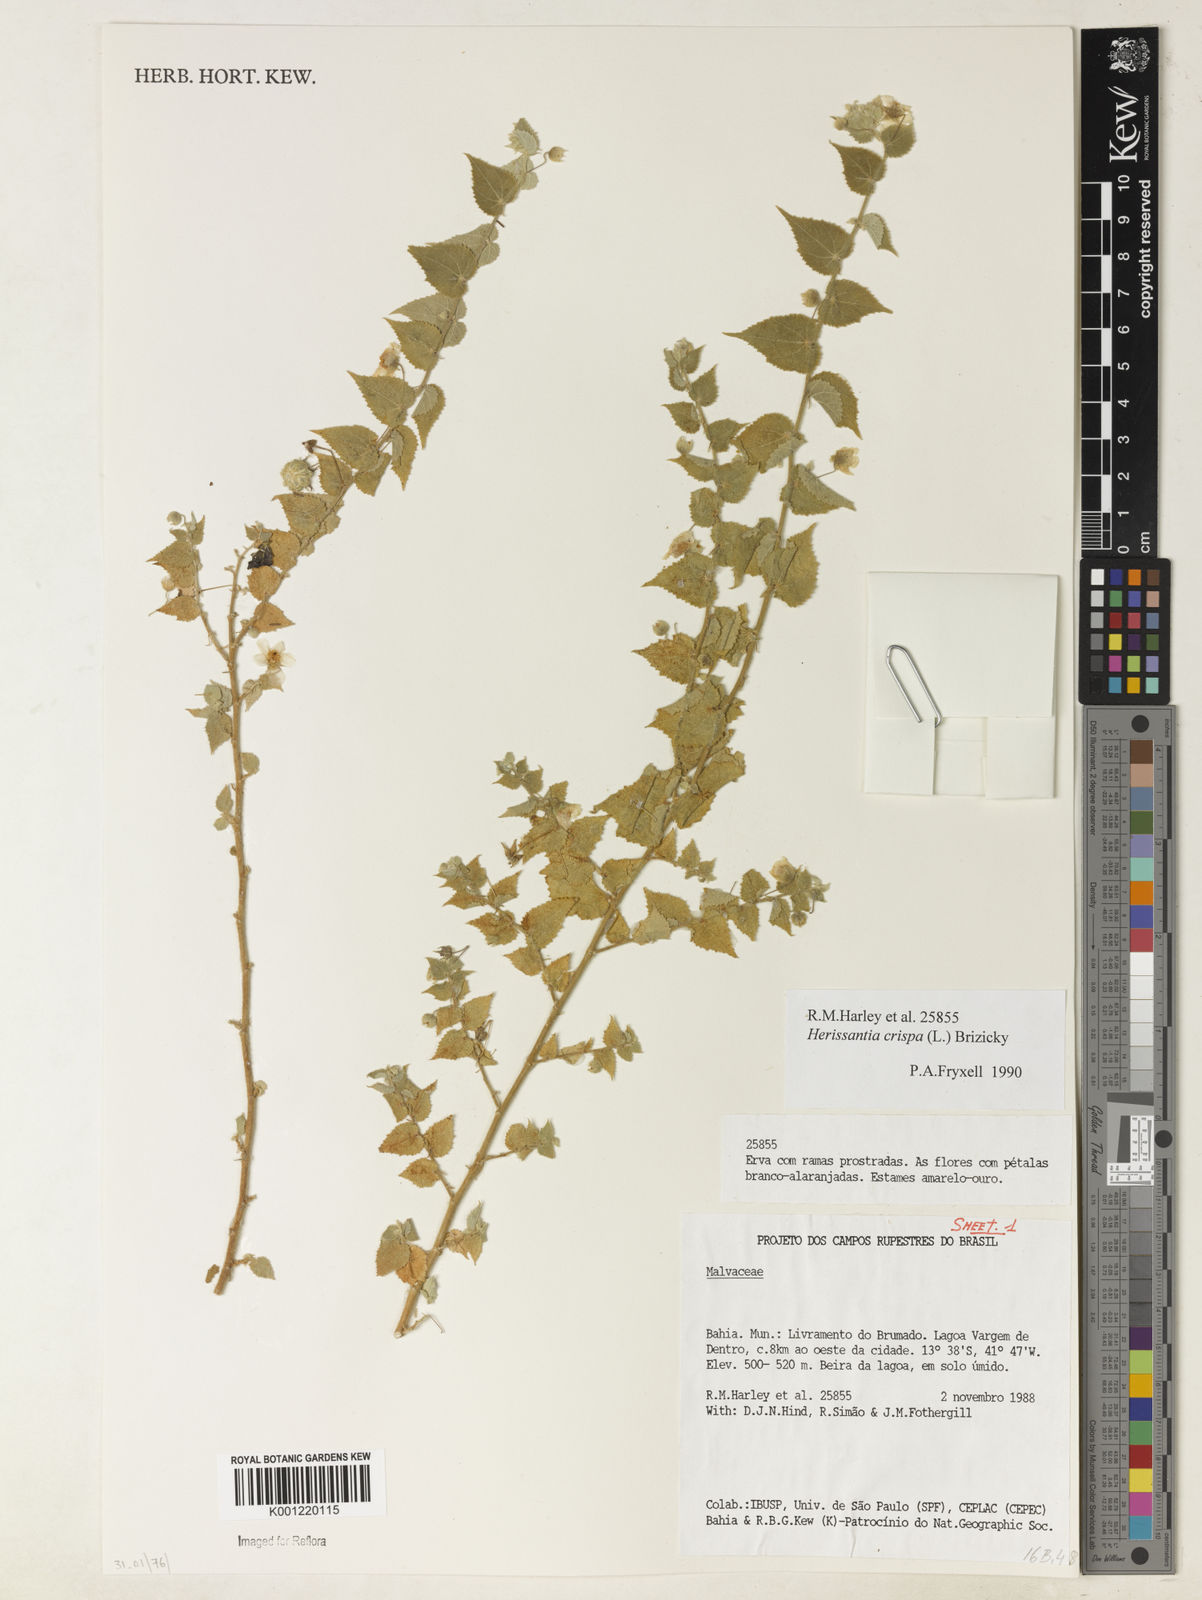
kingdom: Plantae
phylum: Tracheophyta
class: Magnoliopsida
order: Malvales
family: Malvaceae
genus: Herissantia
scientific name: Herissantia crispa
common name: Bladdermallow
